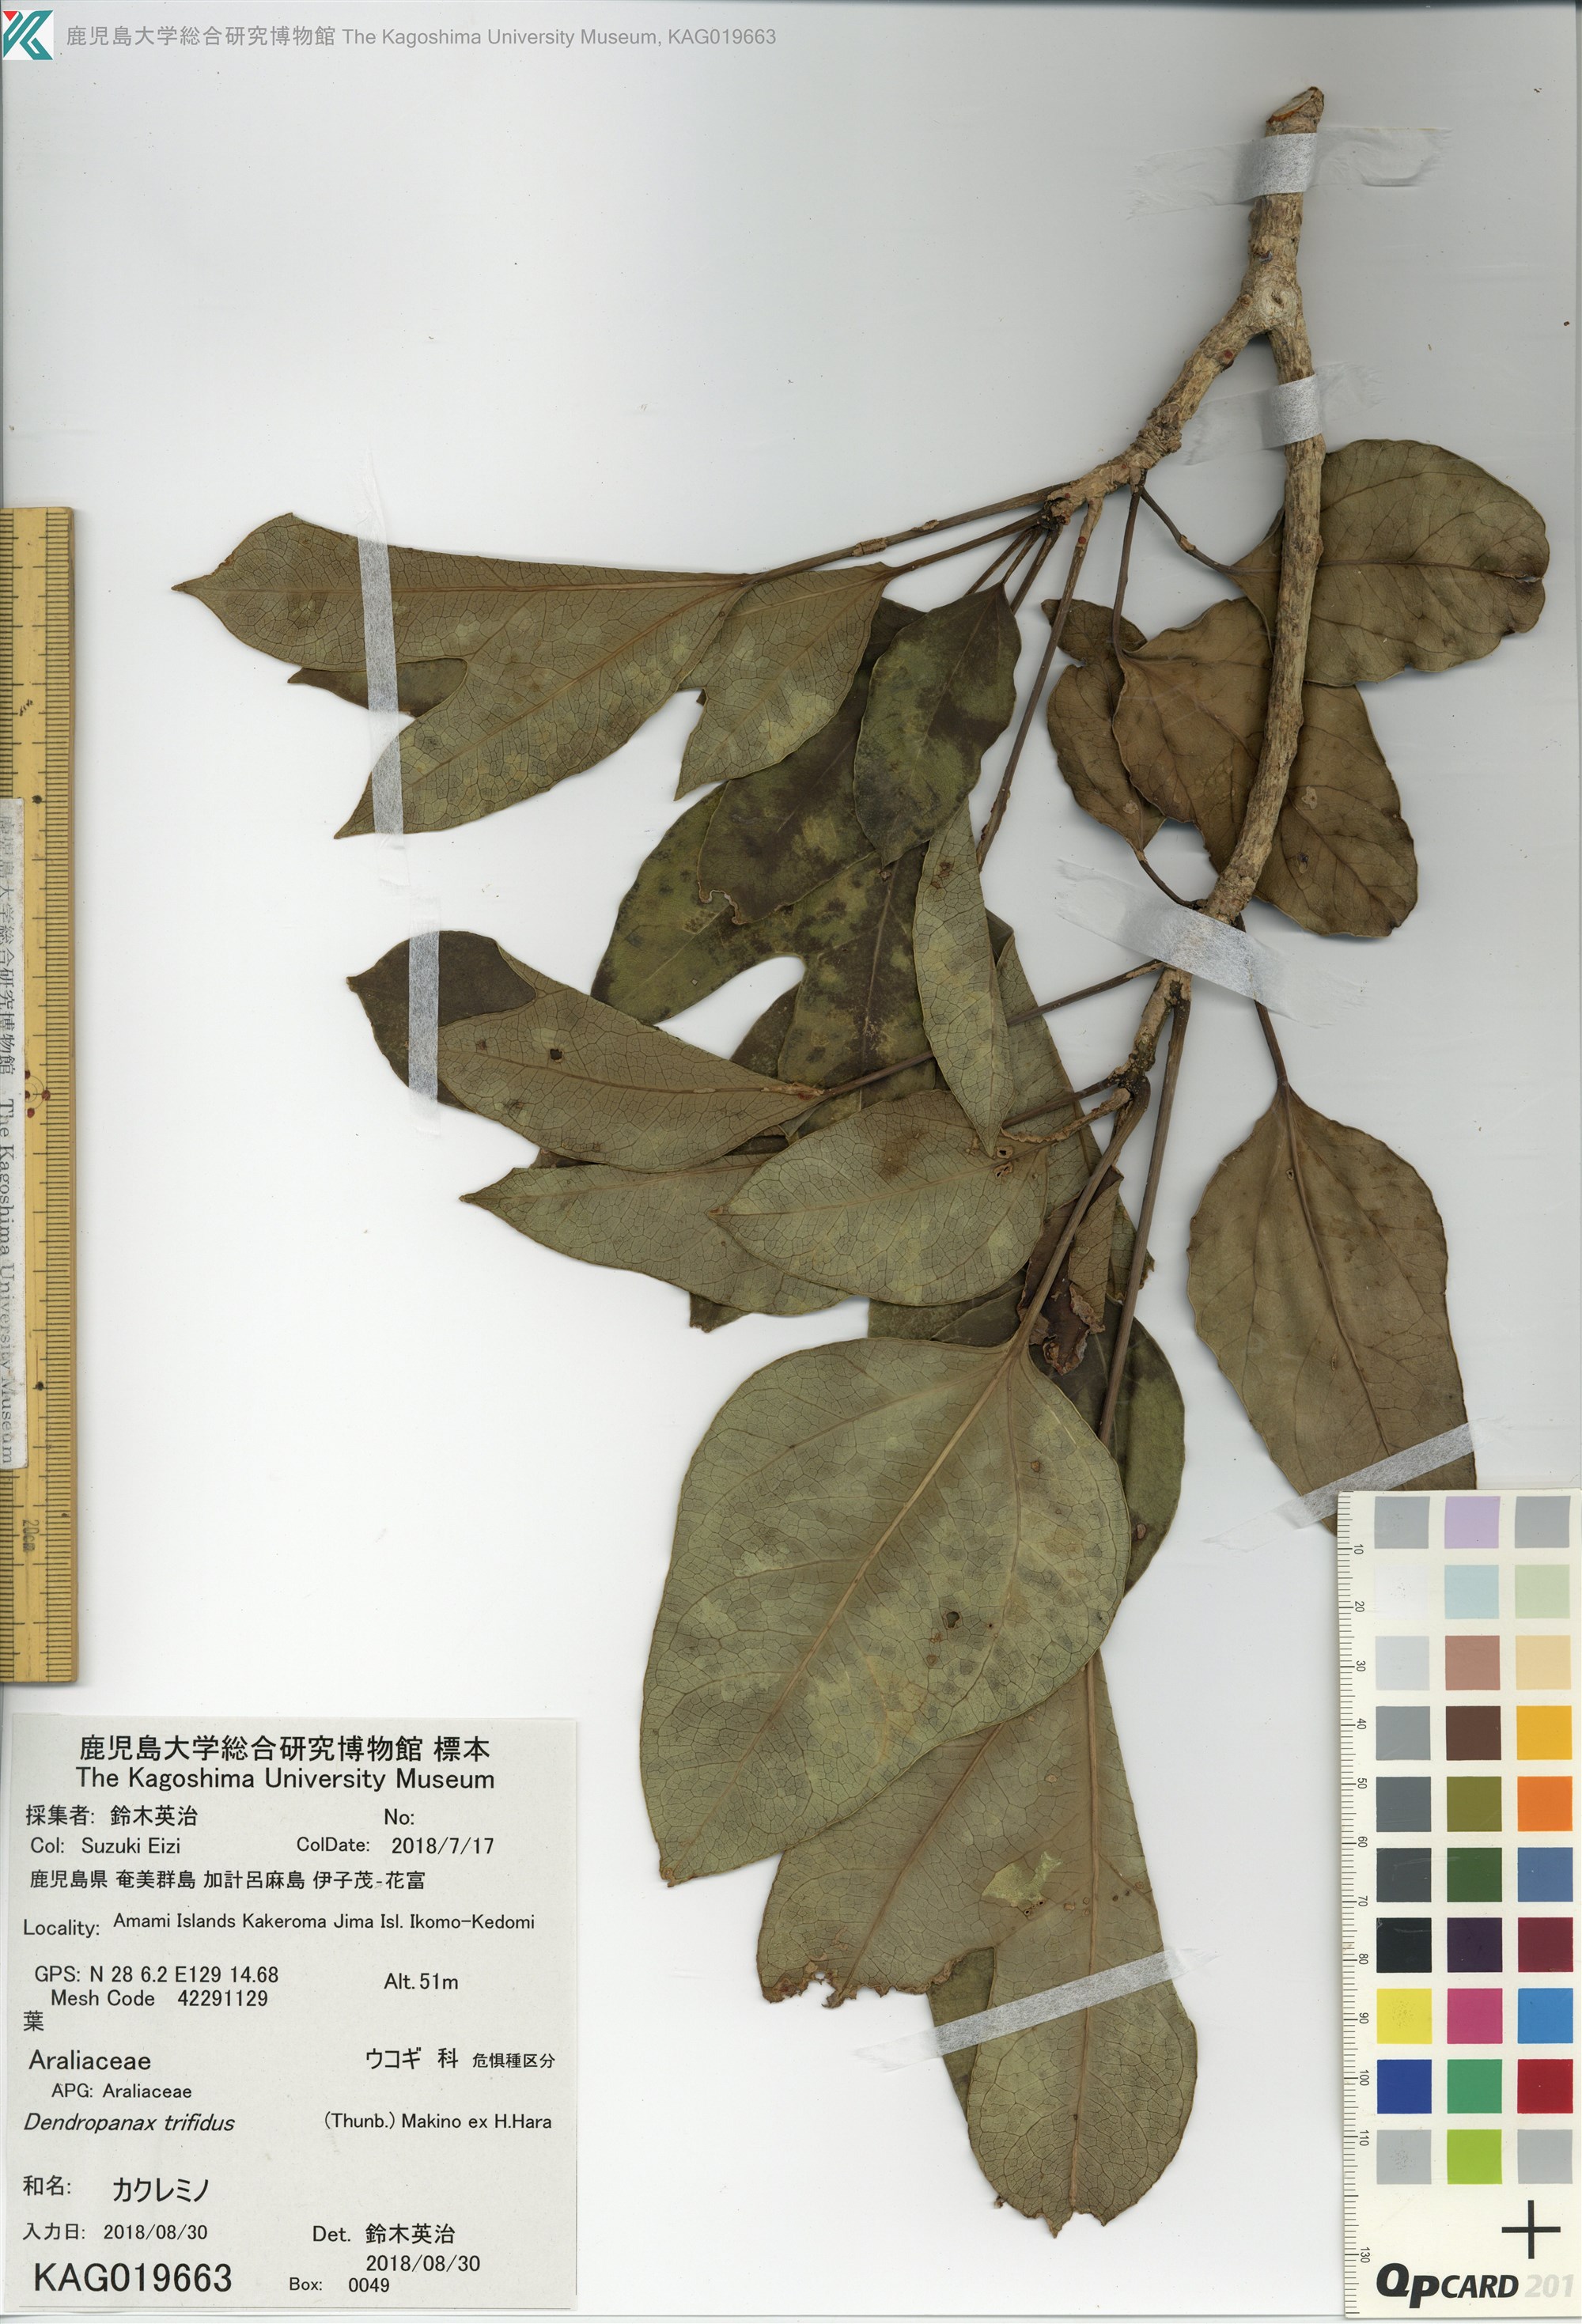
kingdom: Plantae
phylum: Tracheophyta
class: Magnoliopsida
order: Apiales
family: Araliaceae
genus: Dendropanax
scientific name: Dendropanax trifidus
